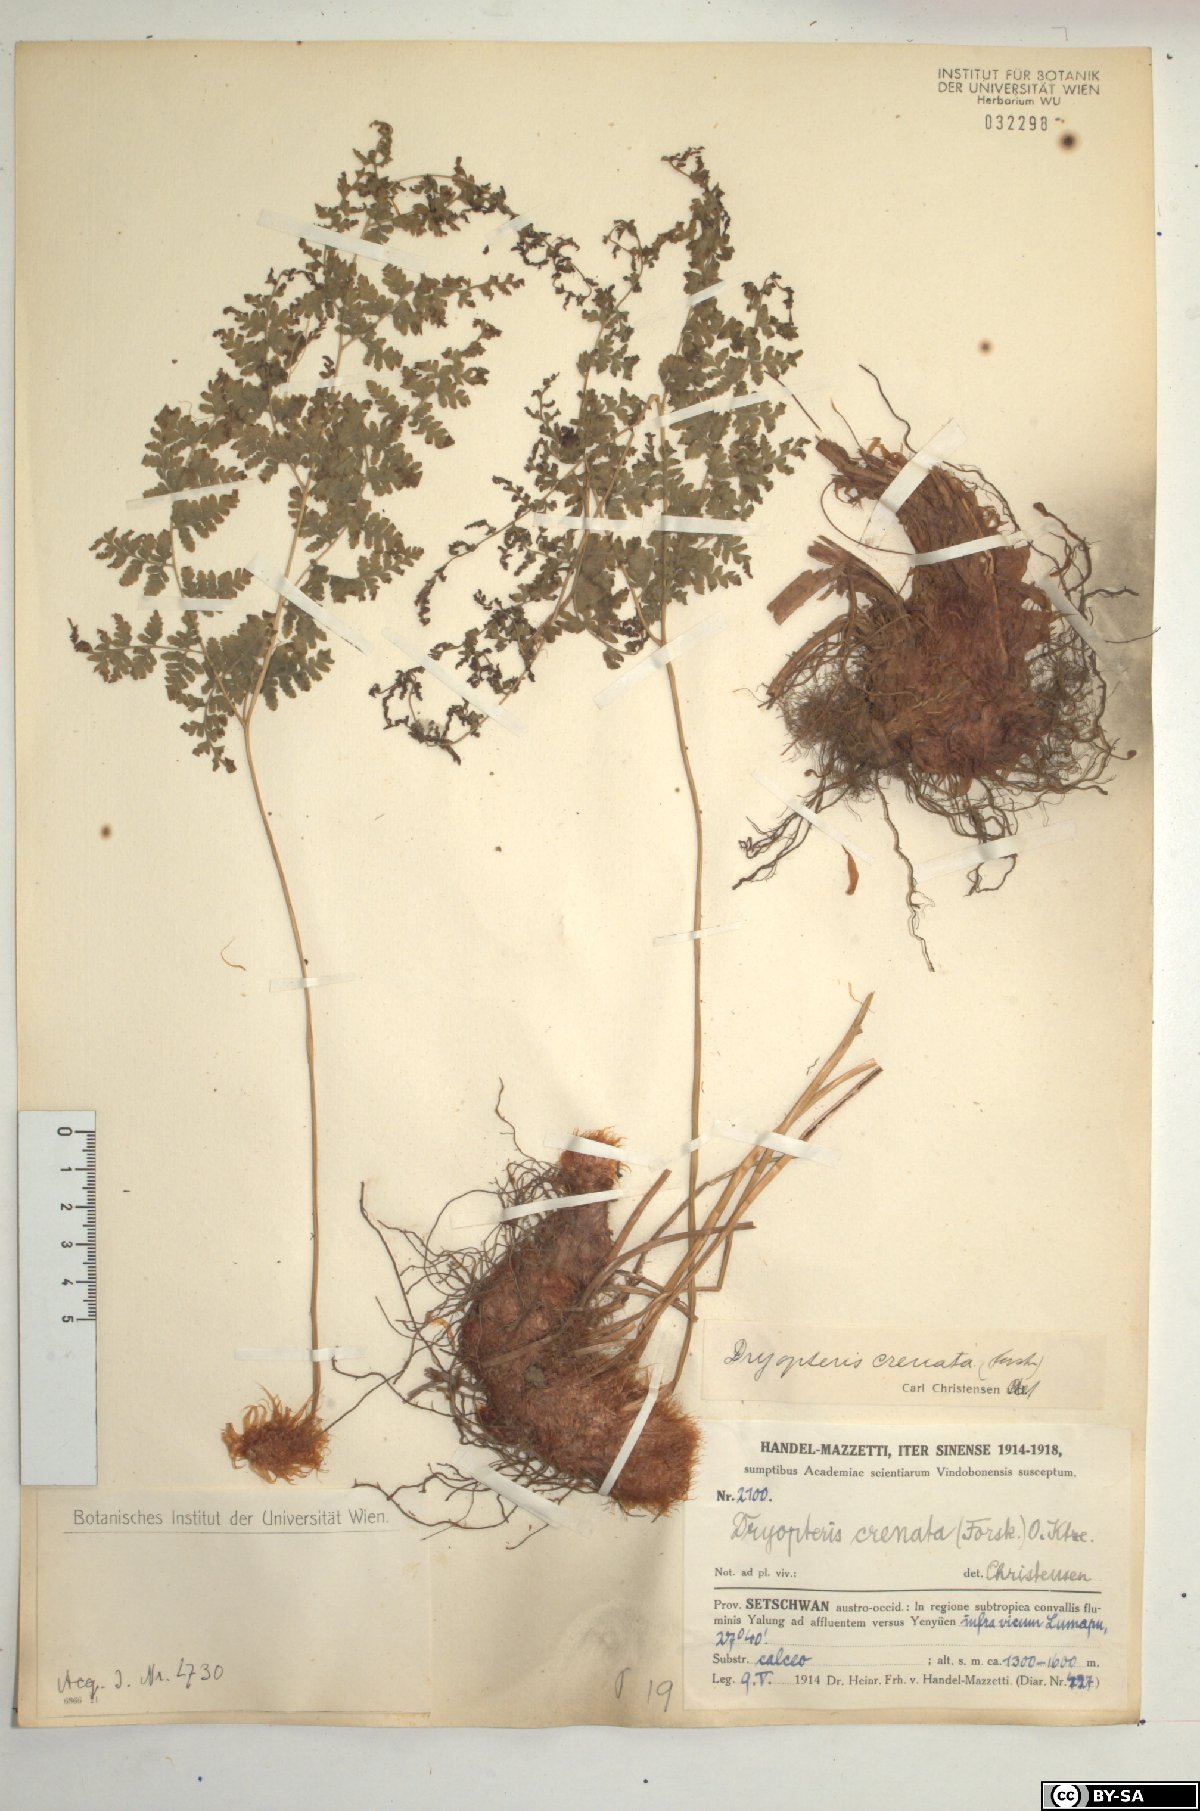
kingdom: Plantae
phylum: Tracheophyta
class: Polypodiopsida
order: Polypodiales
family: Hypodematiaceae
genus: Hypodematium
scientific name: Hypodematium chrysolepis
